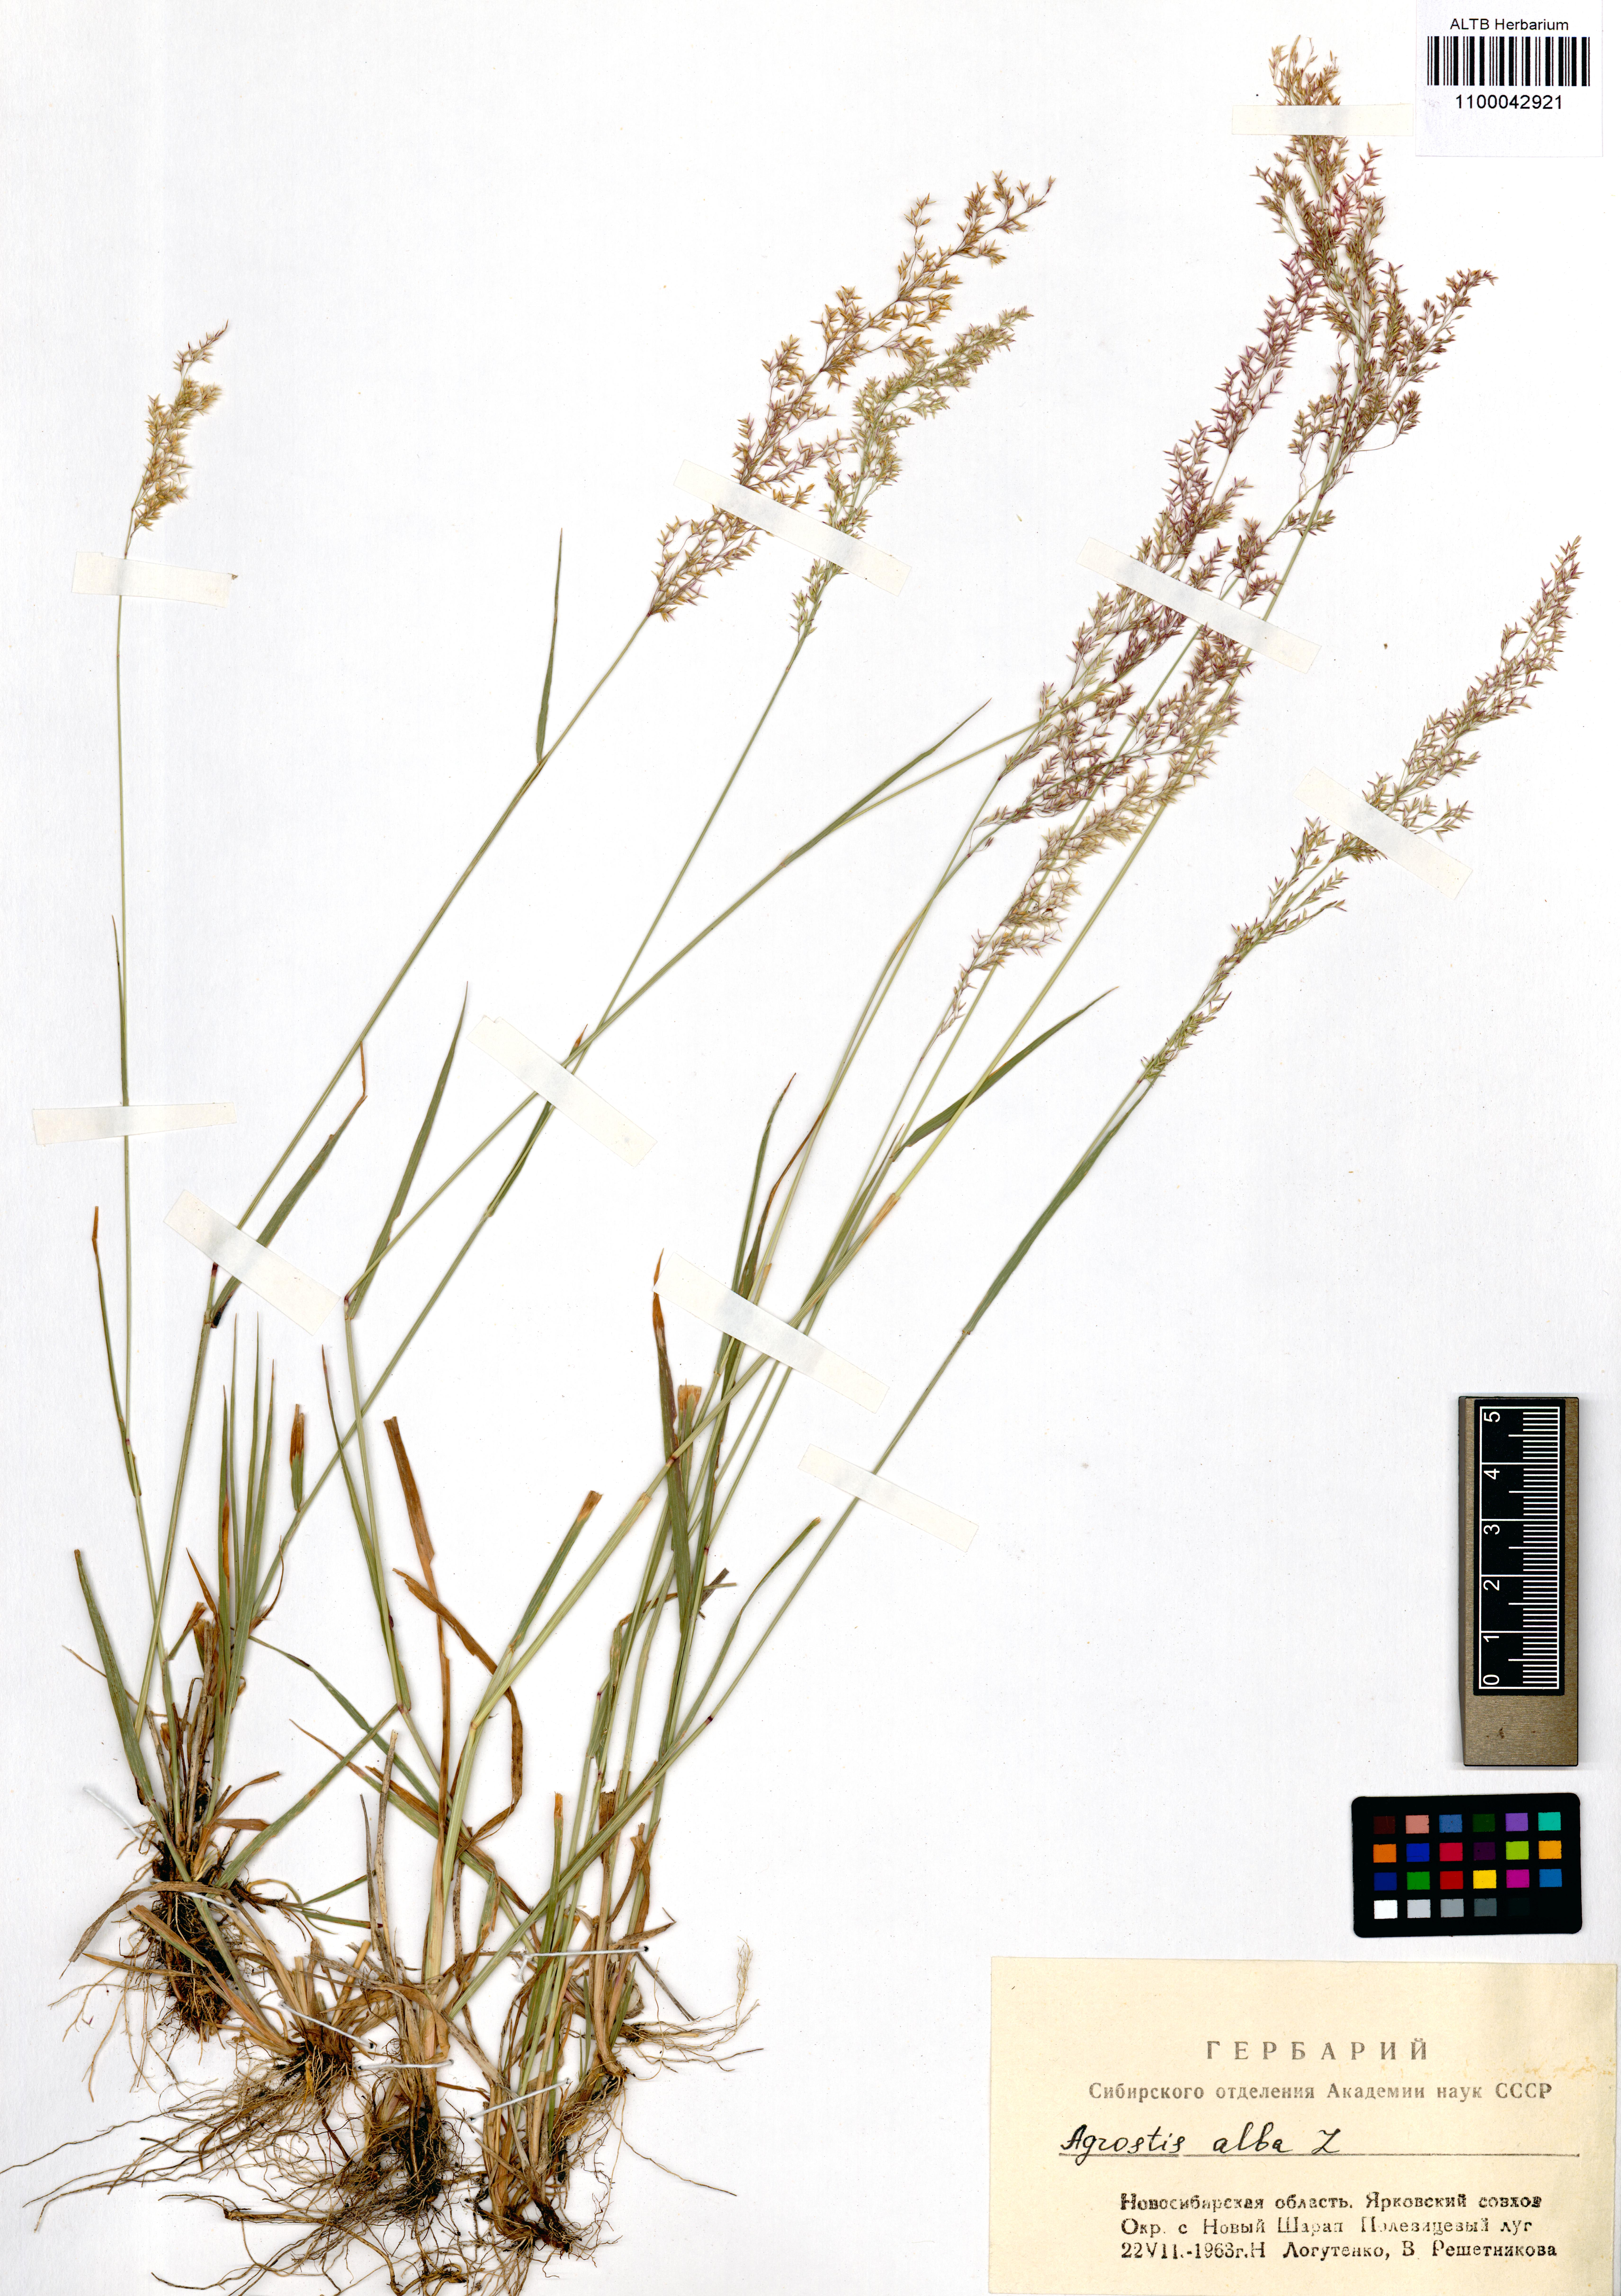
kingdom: Plantae
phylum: Tracheophyta
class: Liliopsida
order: Poales
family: Poaceae
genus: Agrostis
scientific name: Agrostis gigantea
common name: Black bent
